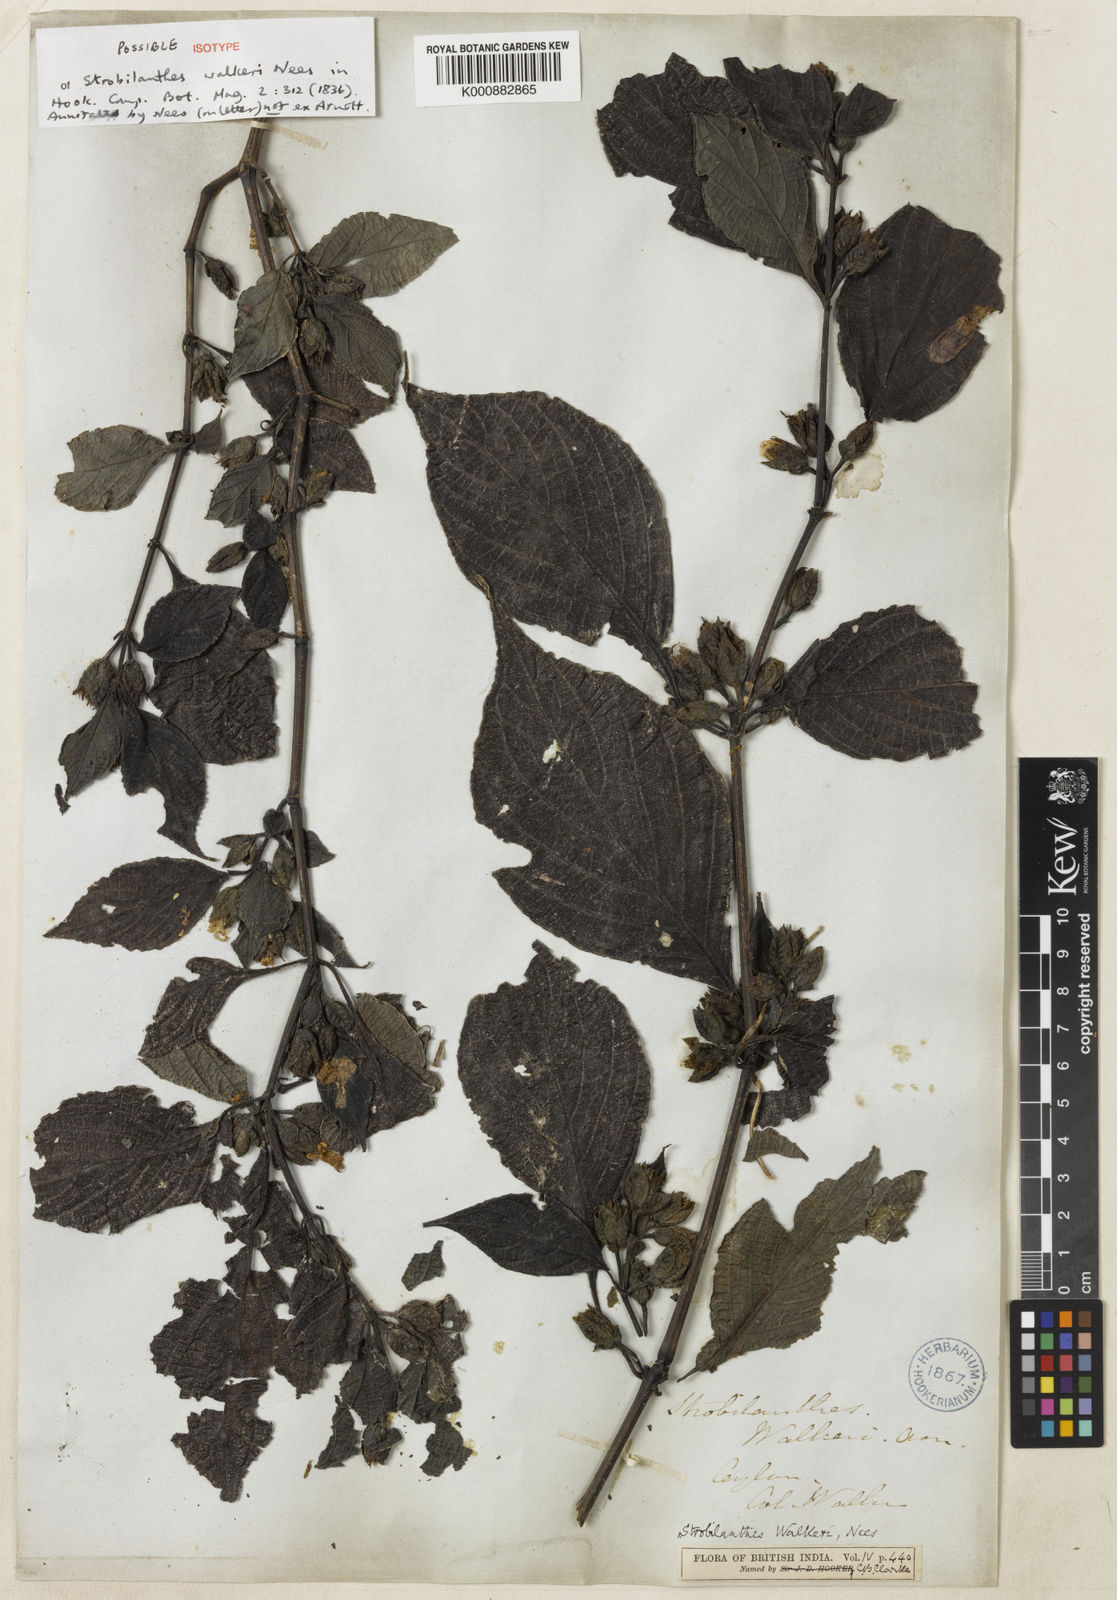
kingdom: Plantae
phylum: Tracheophyta
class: Magnoliopsida
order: Lamiales
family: Acanthaceae
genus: Strobilanthes
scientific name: Strobilanthes walkeri
